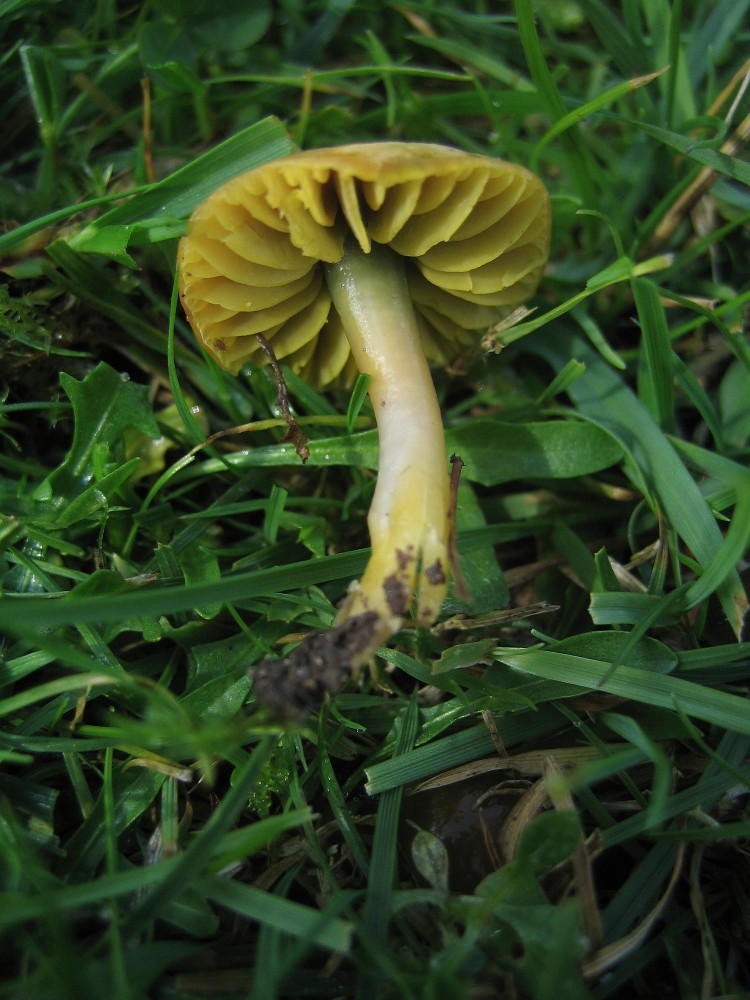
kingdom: Fungi
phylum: Basidiomycota
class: Agaricomycetes
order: Agaricales
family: Hygrophoraceae
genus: Gliophorus
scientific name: Gliophorus psittacinus
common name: papegøje-vokshat
